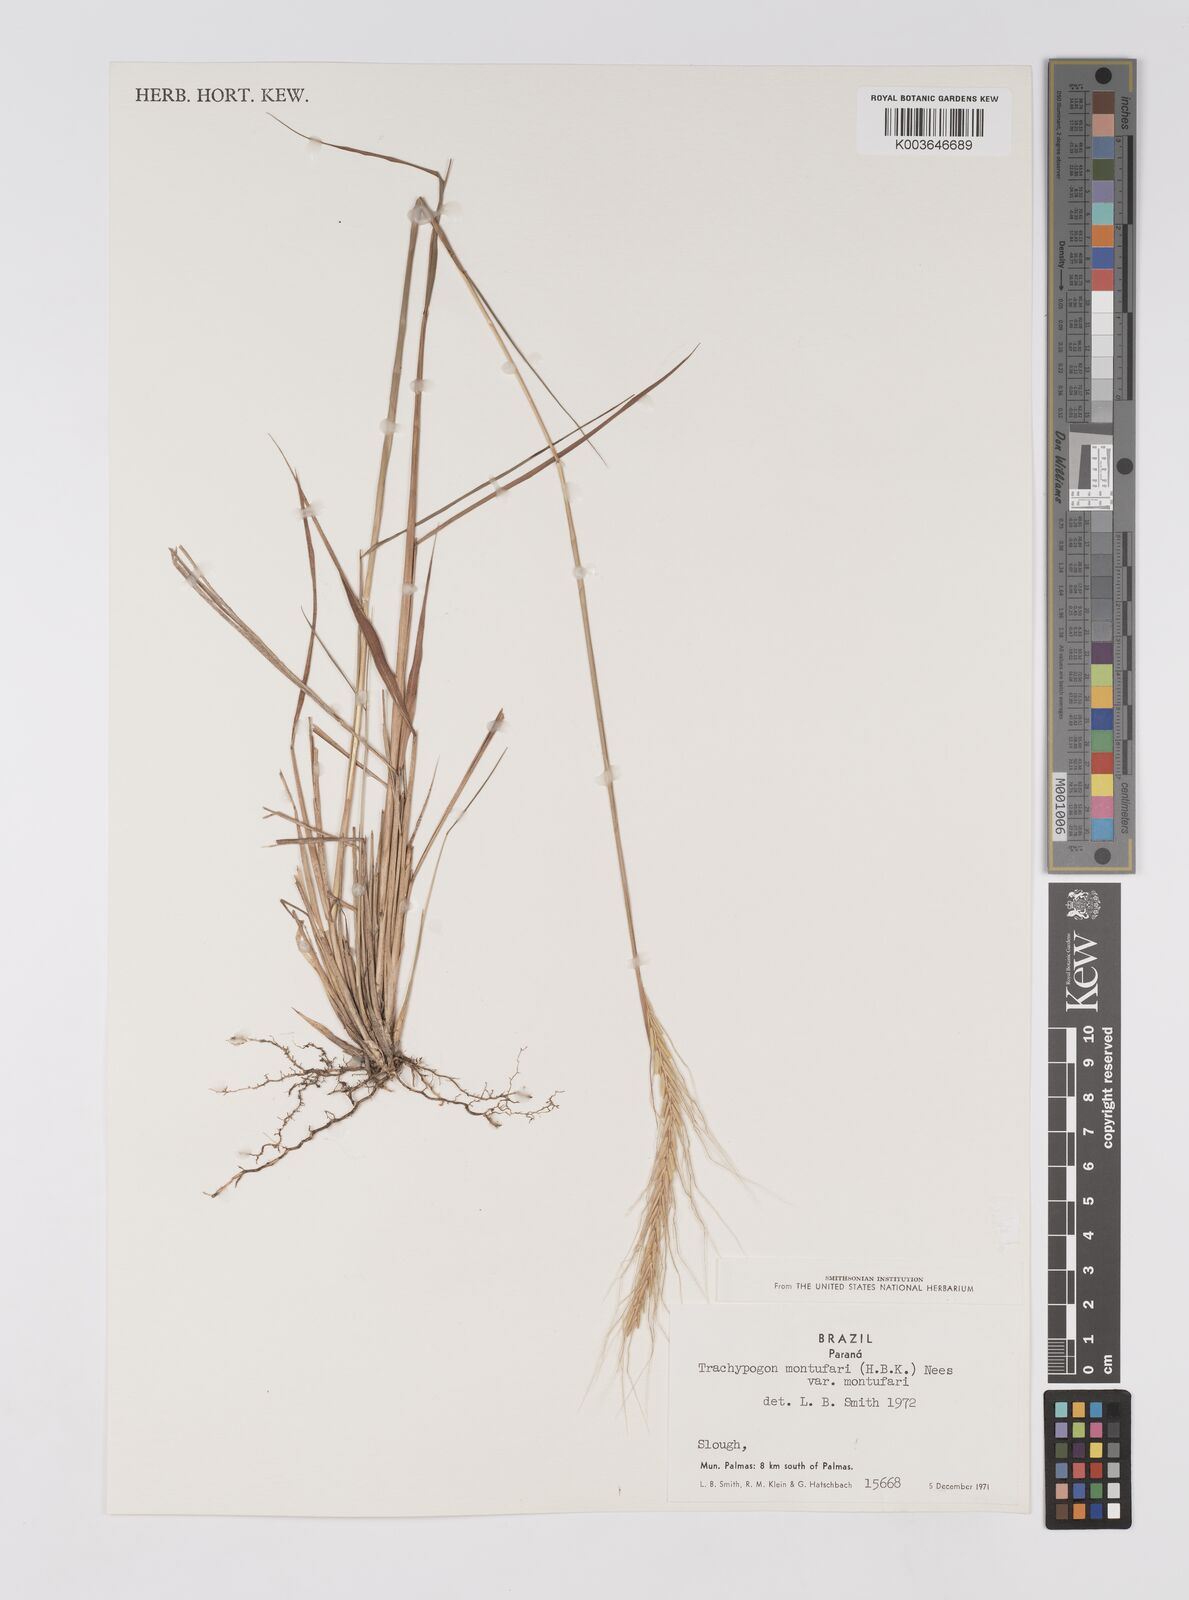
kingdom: Plantae
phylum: Tracheophyta
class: Liliopsida
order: Poales
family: Poaceae
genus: Trachypogon
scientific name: Trachypogon spicatus
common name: Crinkle-awn
